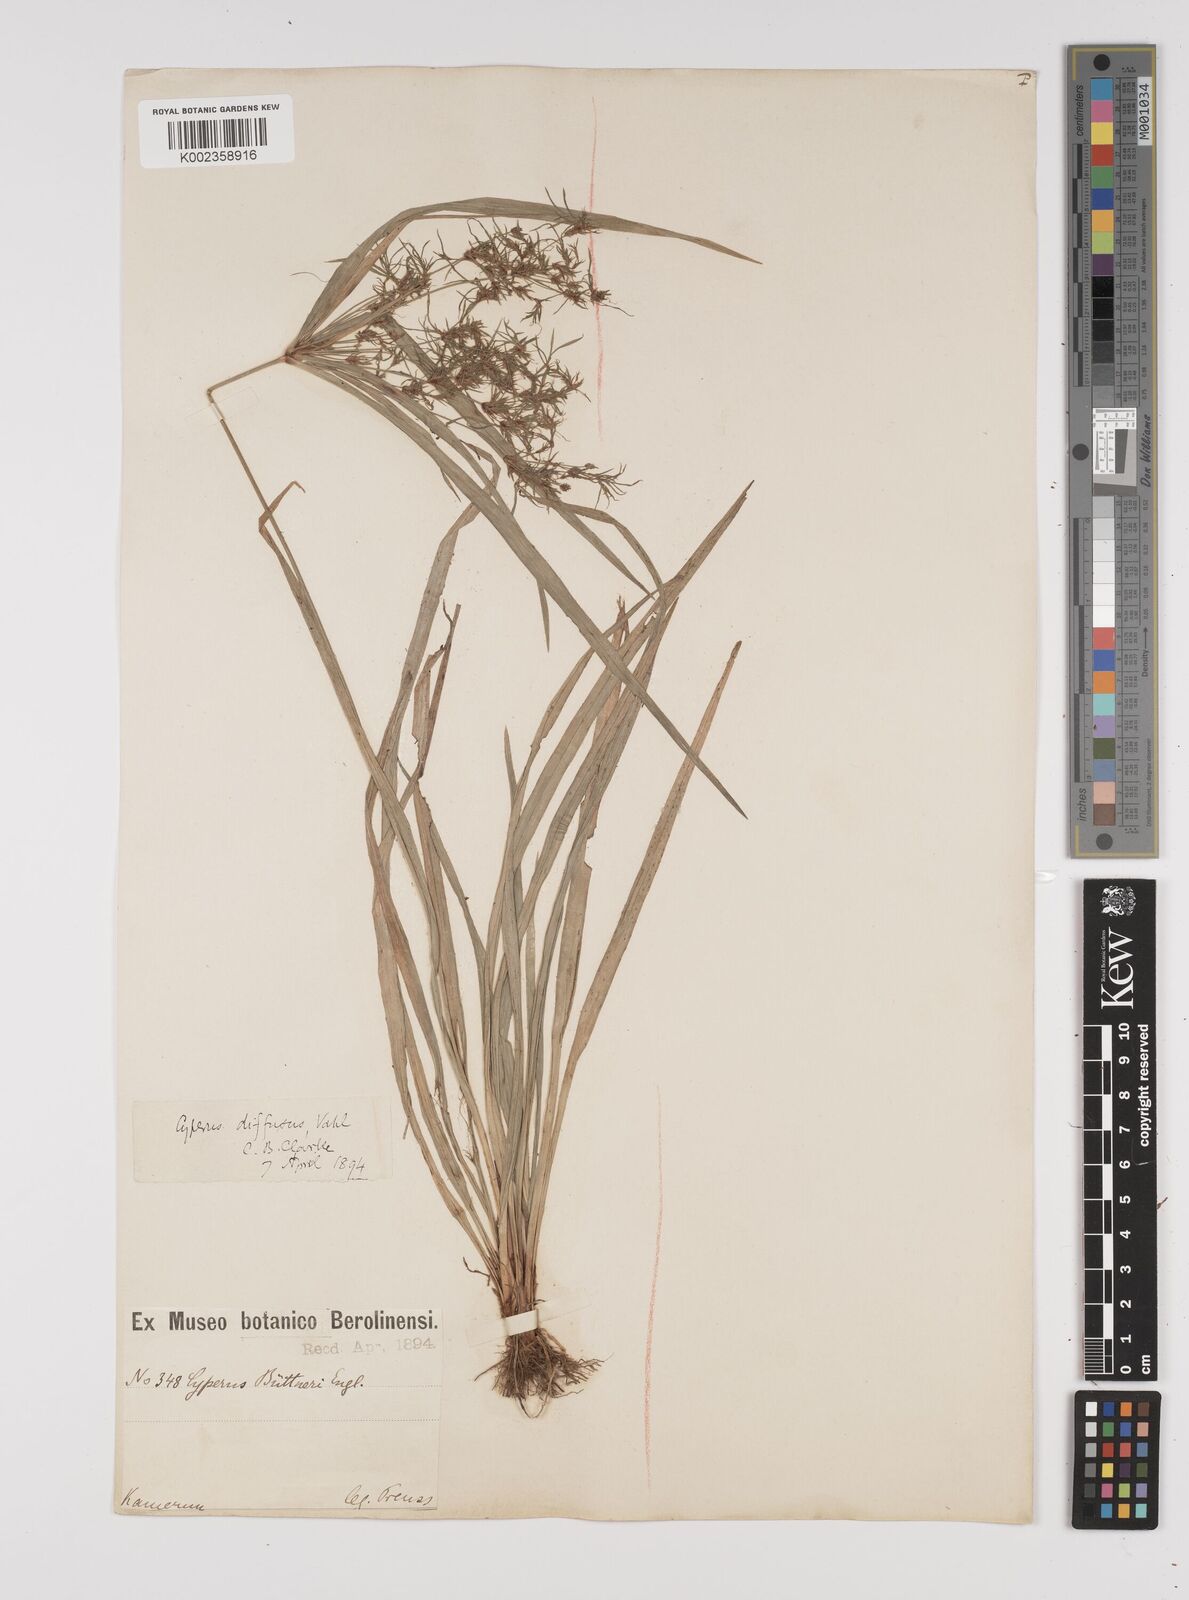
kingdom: Plantae
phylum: Tracheophyta
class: Liliopsida
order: Poales
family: Cyperaceae
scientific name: Cyperaceae
